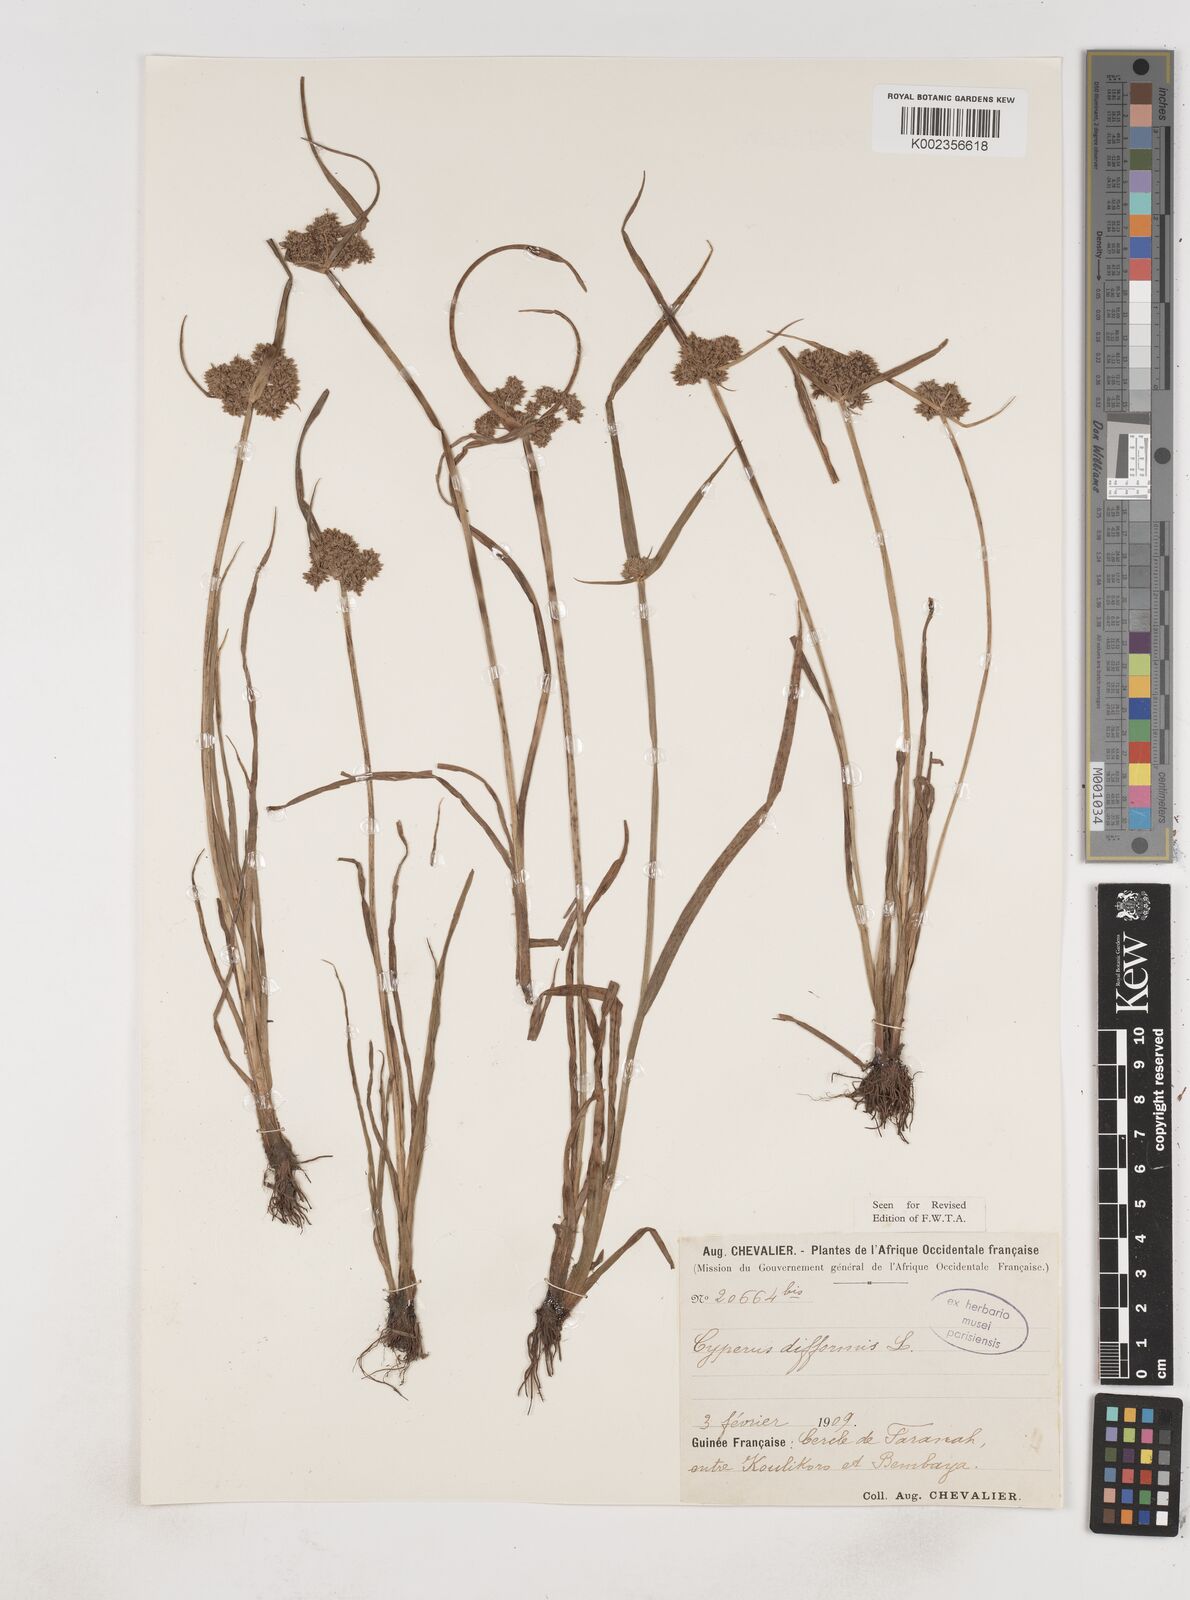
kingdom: Plantae
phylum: Tracheophyta
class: Liliopsida
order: Poales
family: Cyperaceae
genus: Cyperus
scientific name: Cyperus difformis
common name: Variable flatsedge
